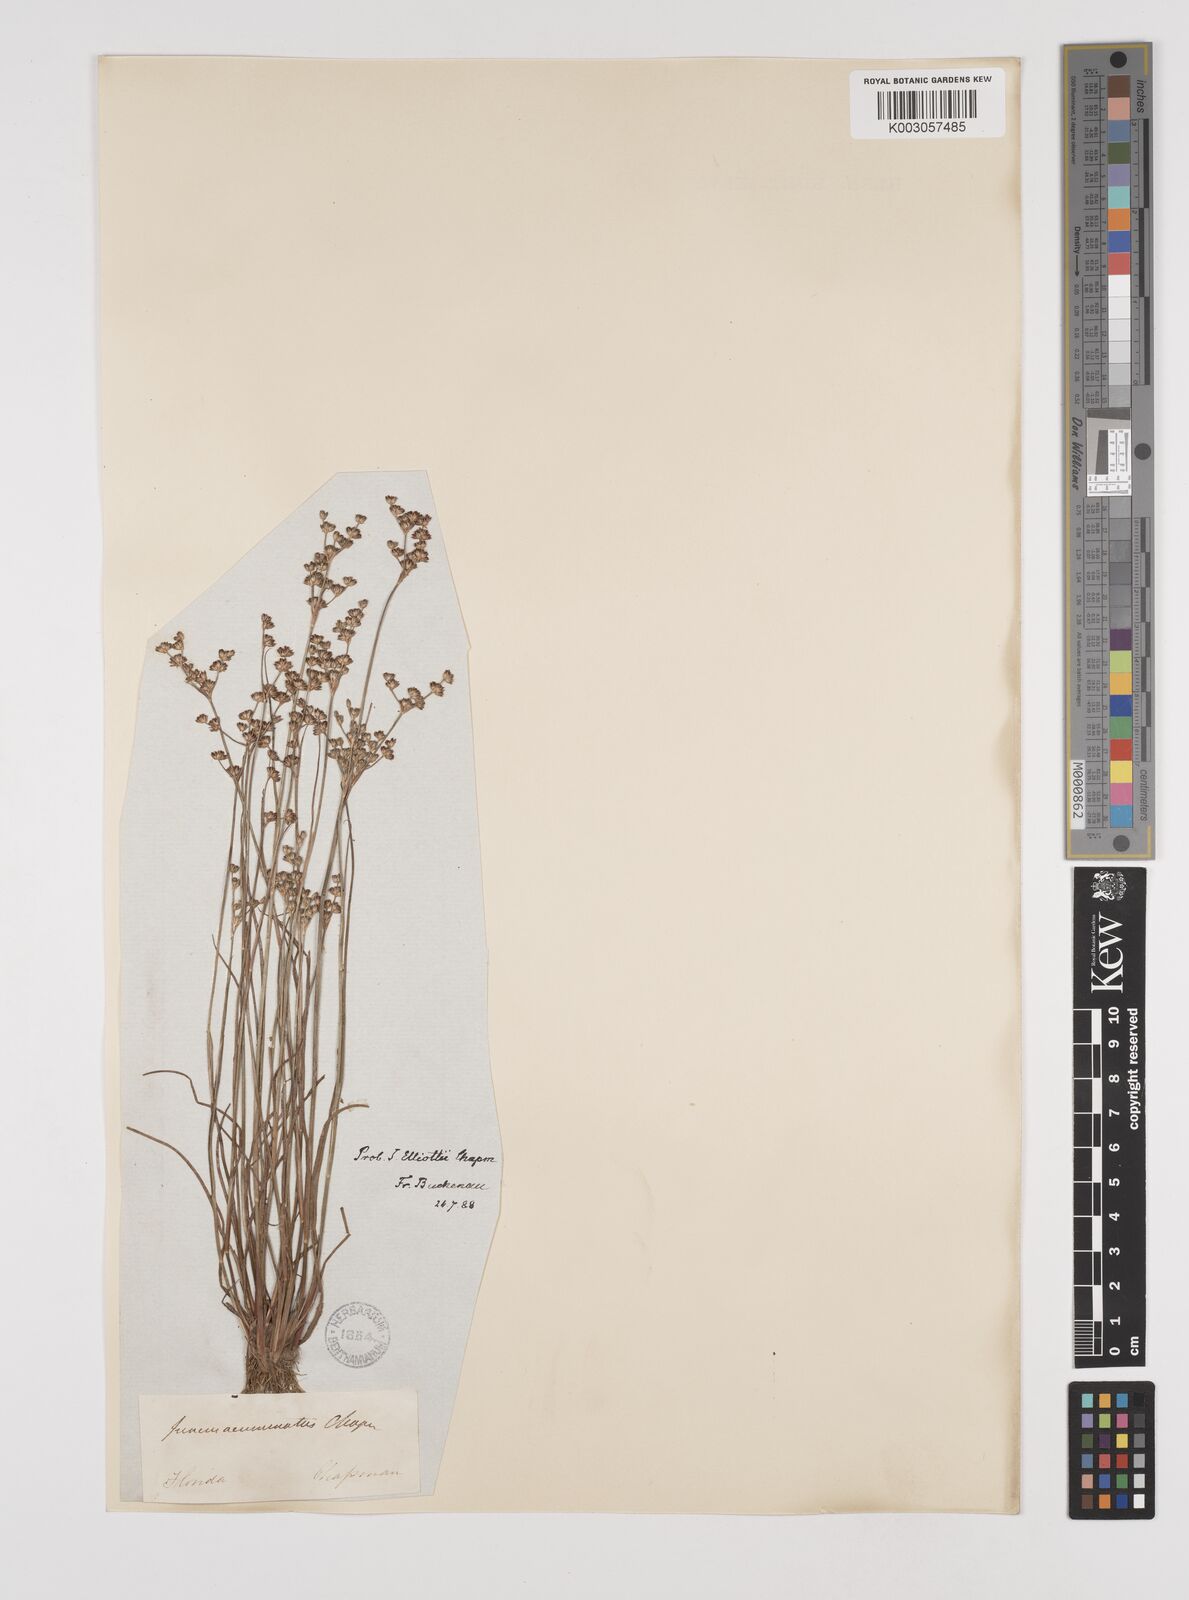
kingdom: Plantae
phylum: Tracheophyta
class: Liliopsida
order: Poales
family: Juncaceae
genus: Juncus
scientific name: Juncus elliottii
